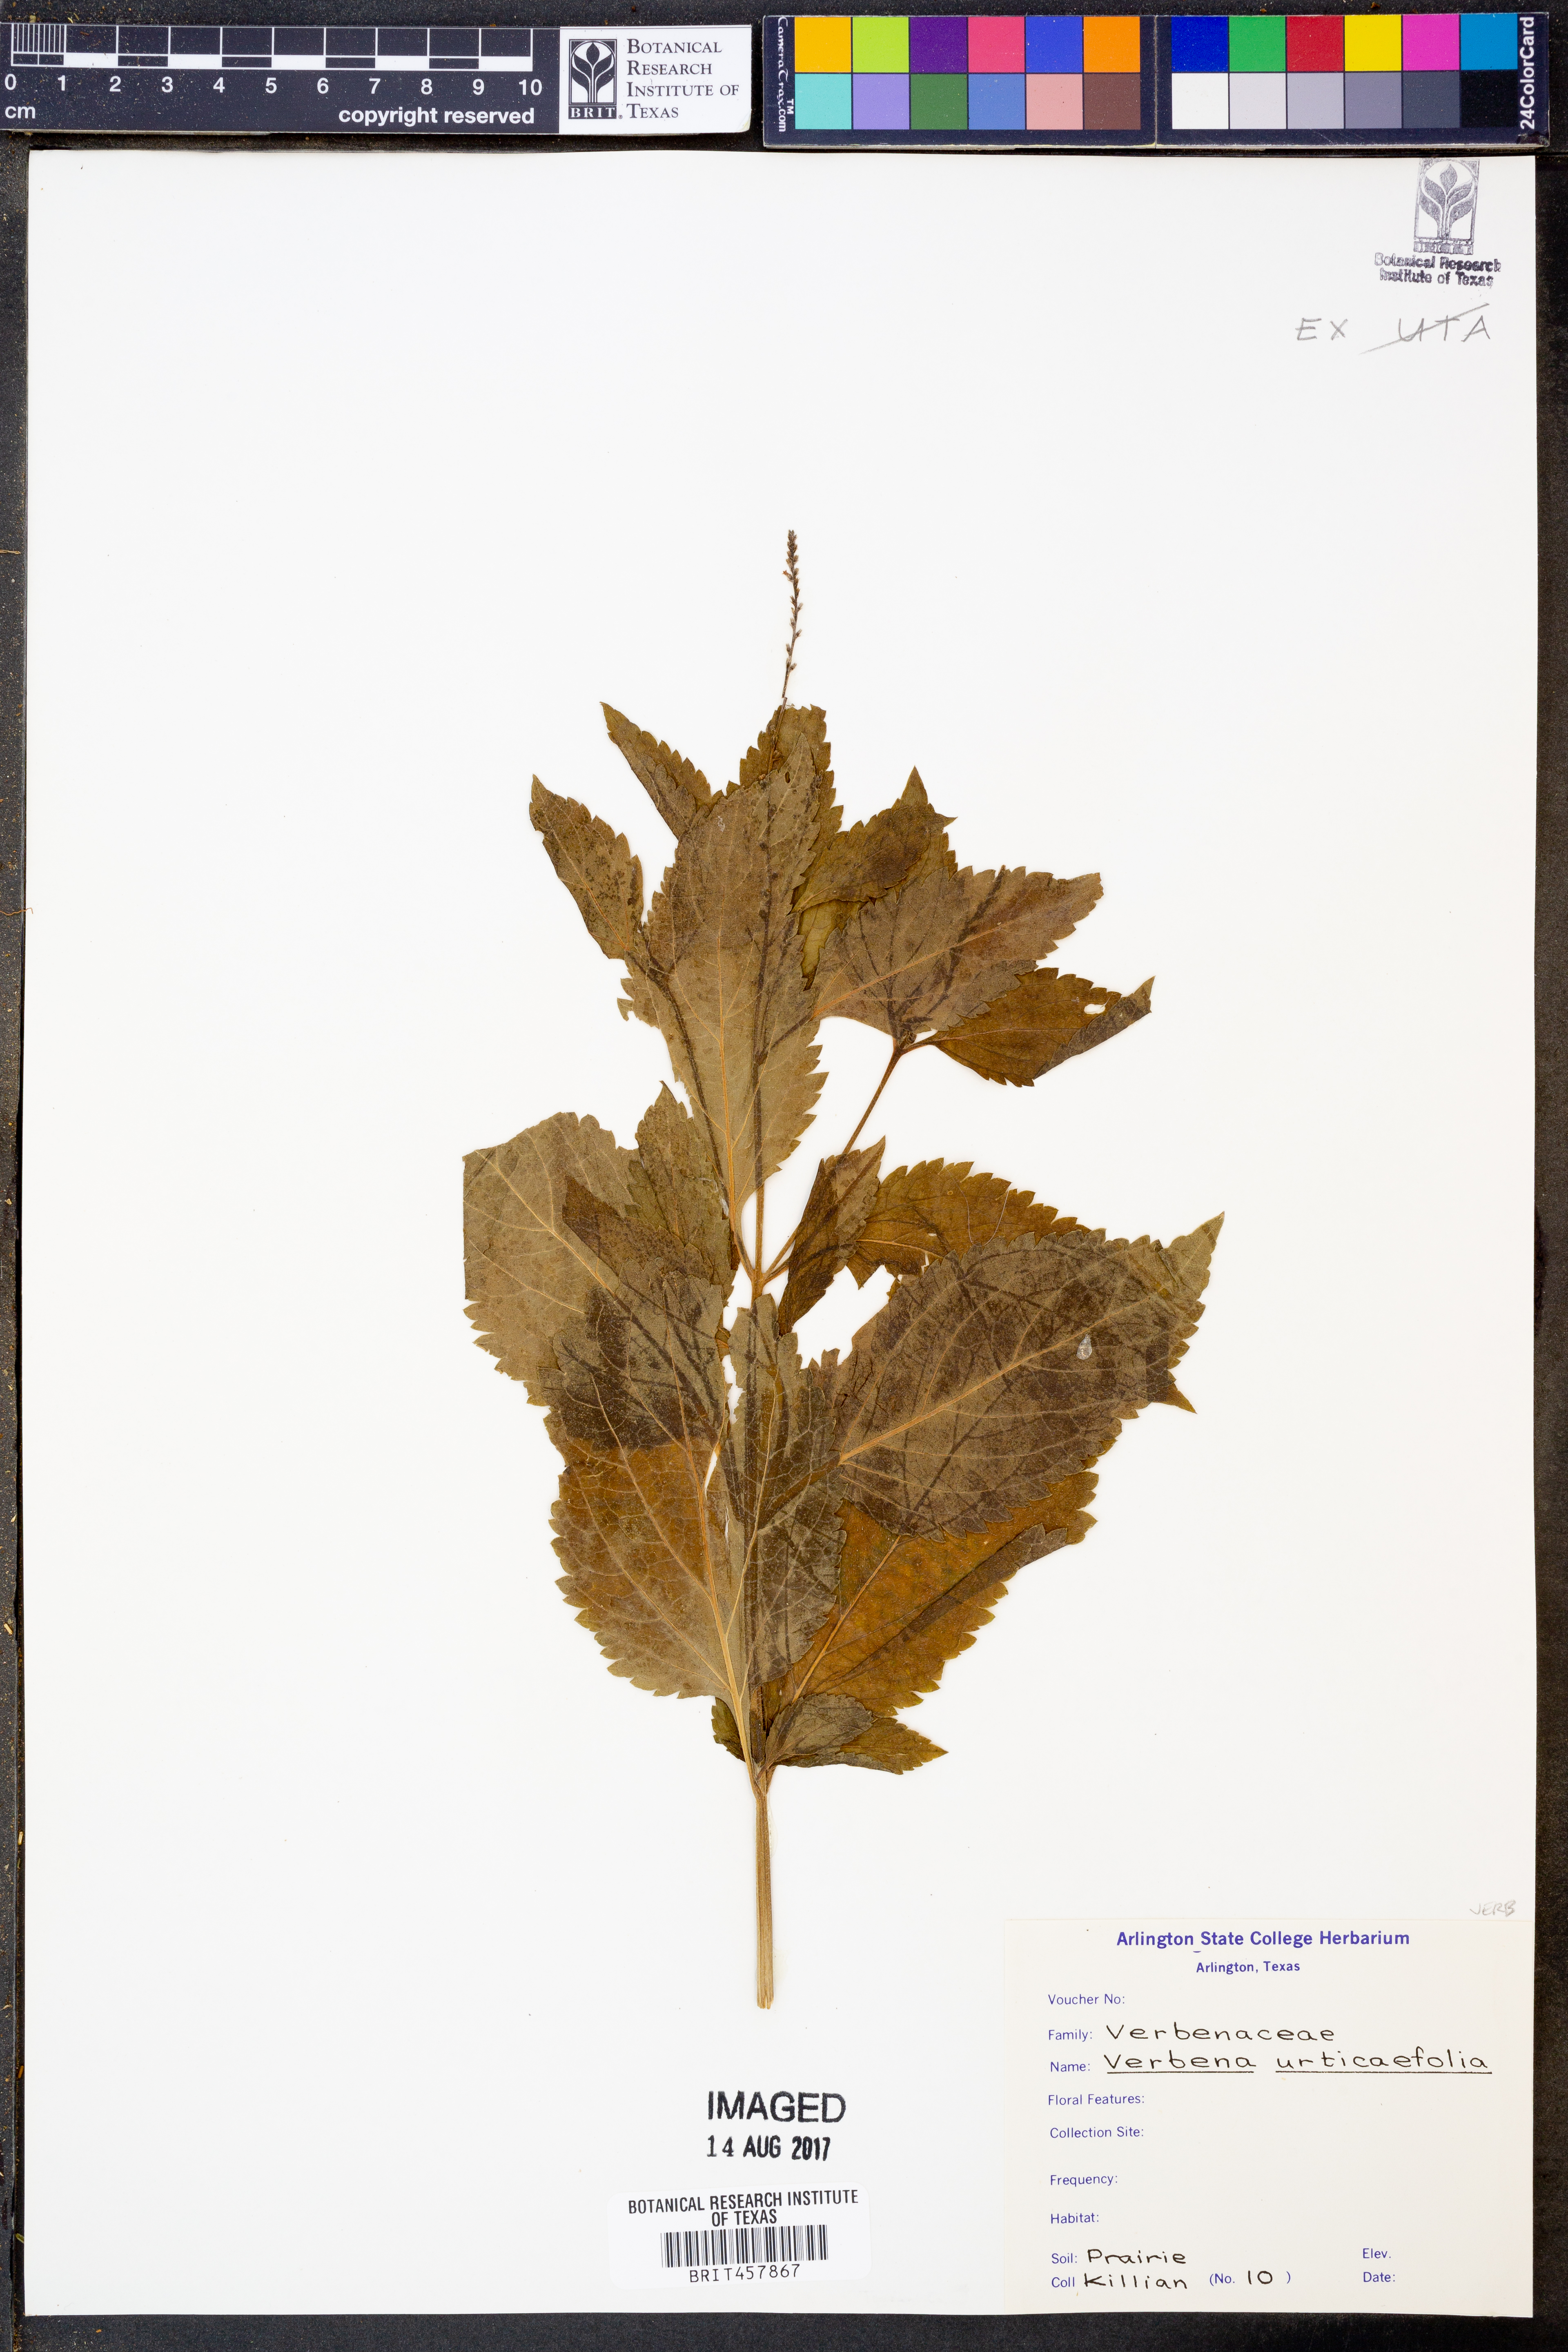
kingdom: Plantae
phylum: Tracheophyta
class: Magnoliopsida
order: Lamiales
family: Verbenaceae
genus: Verbena
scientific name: Verbena urticifolia
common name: Nettle-leaved vervain
